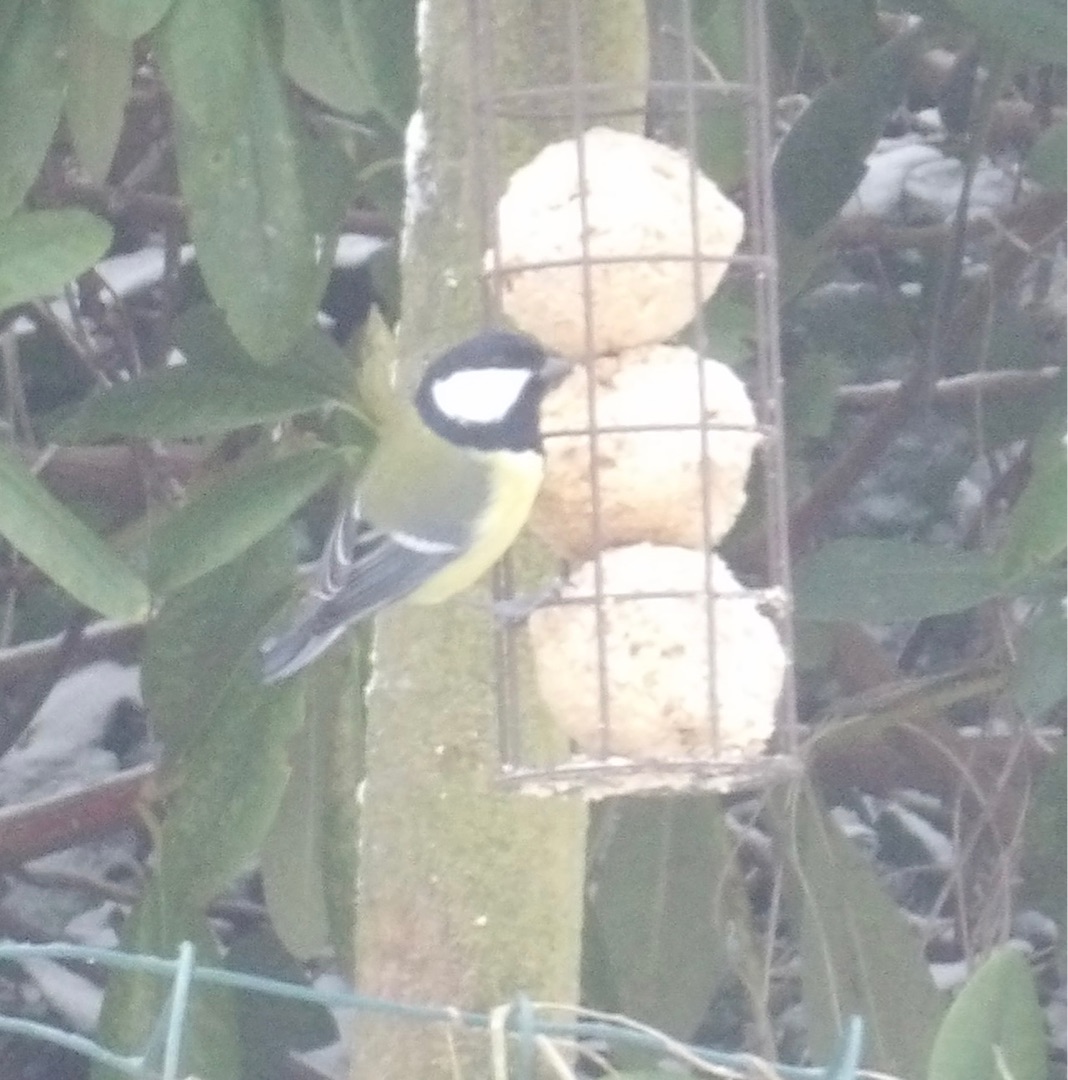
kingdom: Animalia
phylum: Chordata
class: Aves
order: Passeriformes
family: Paridae
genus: Parus
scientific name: Parus major
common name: Musvit
